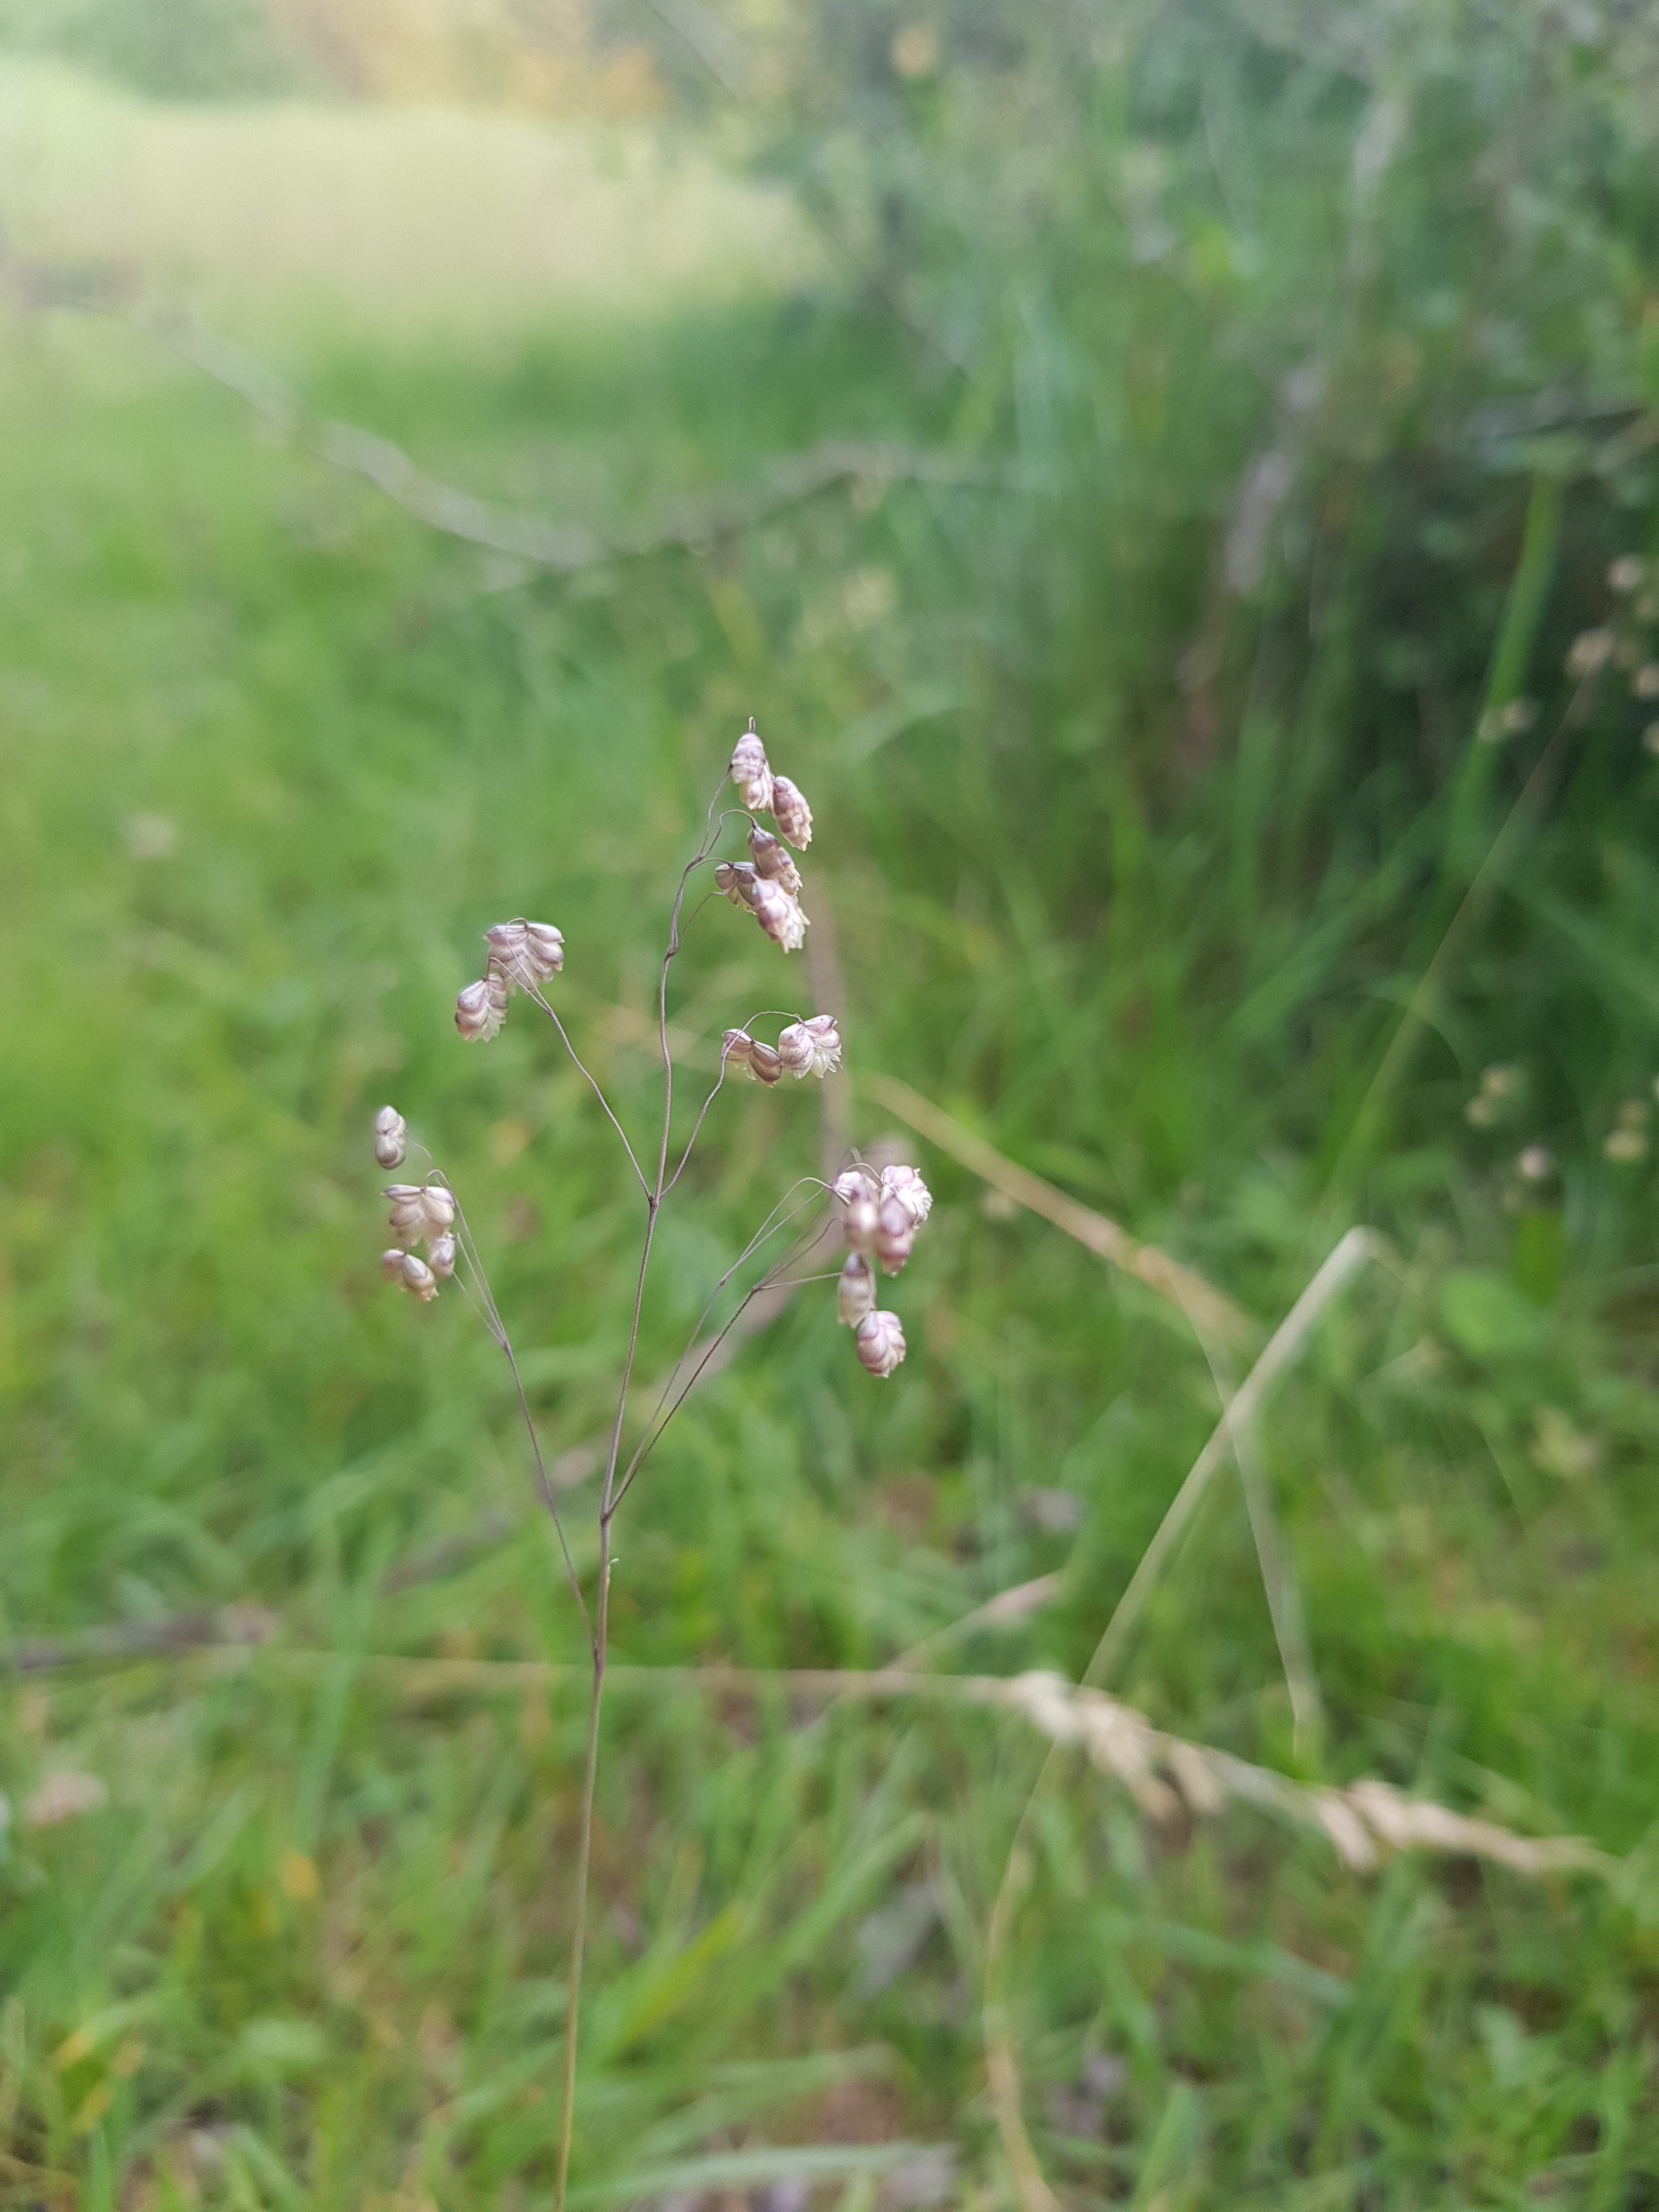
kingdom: Plantae
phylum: Tracheophyta
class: Liliopsida
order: Poales
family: Poaceae
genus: Briza
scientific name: Briza media
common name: Hjertegræs
